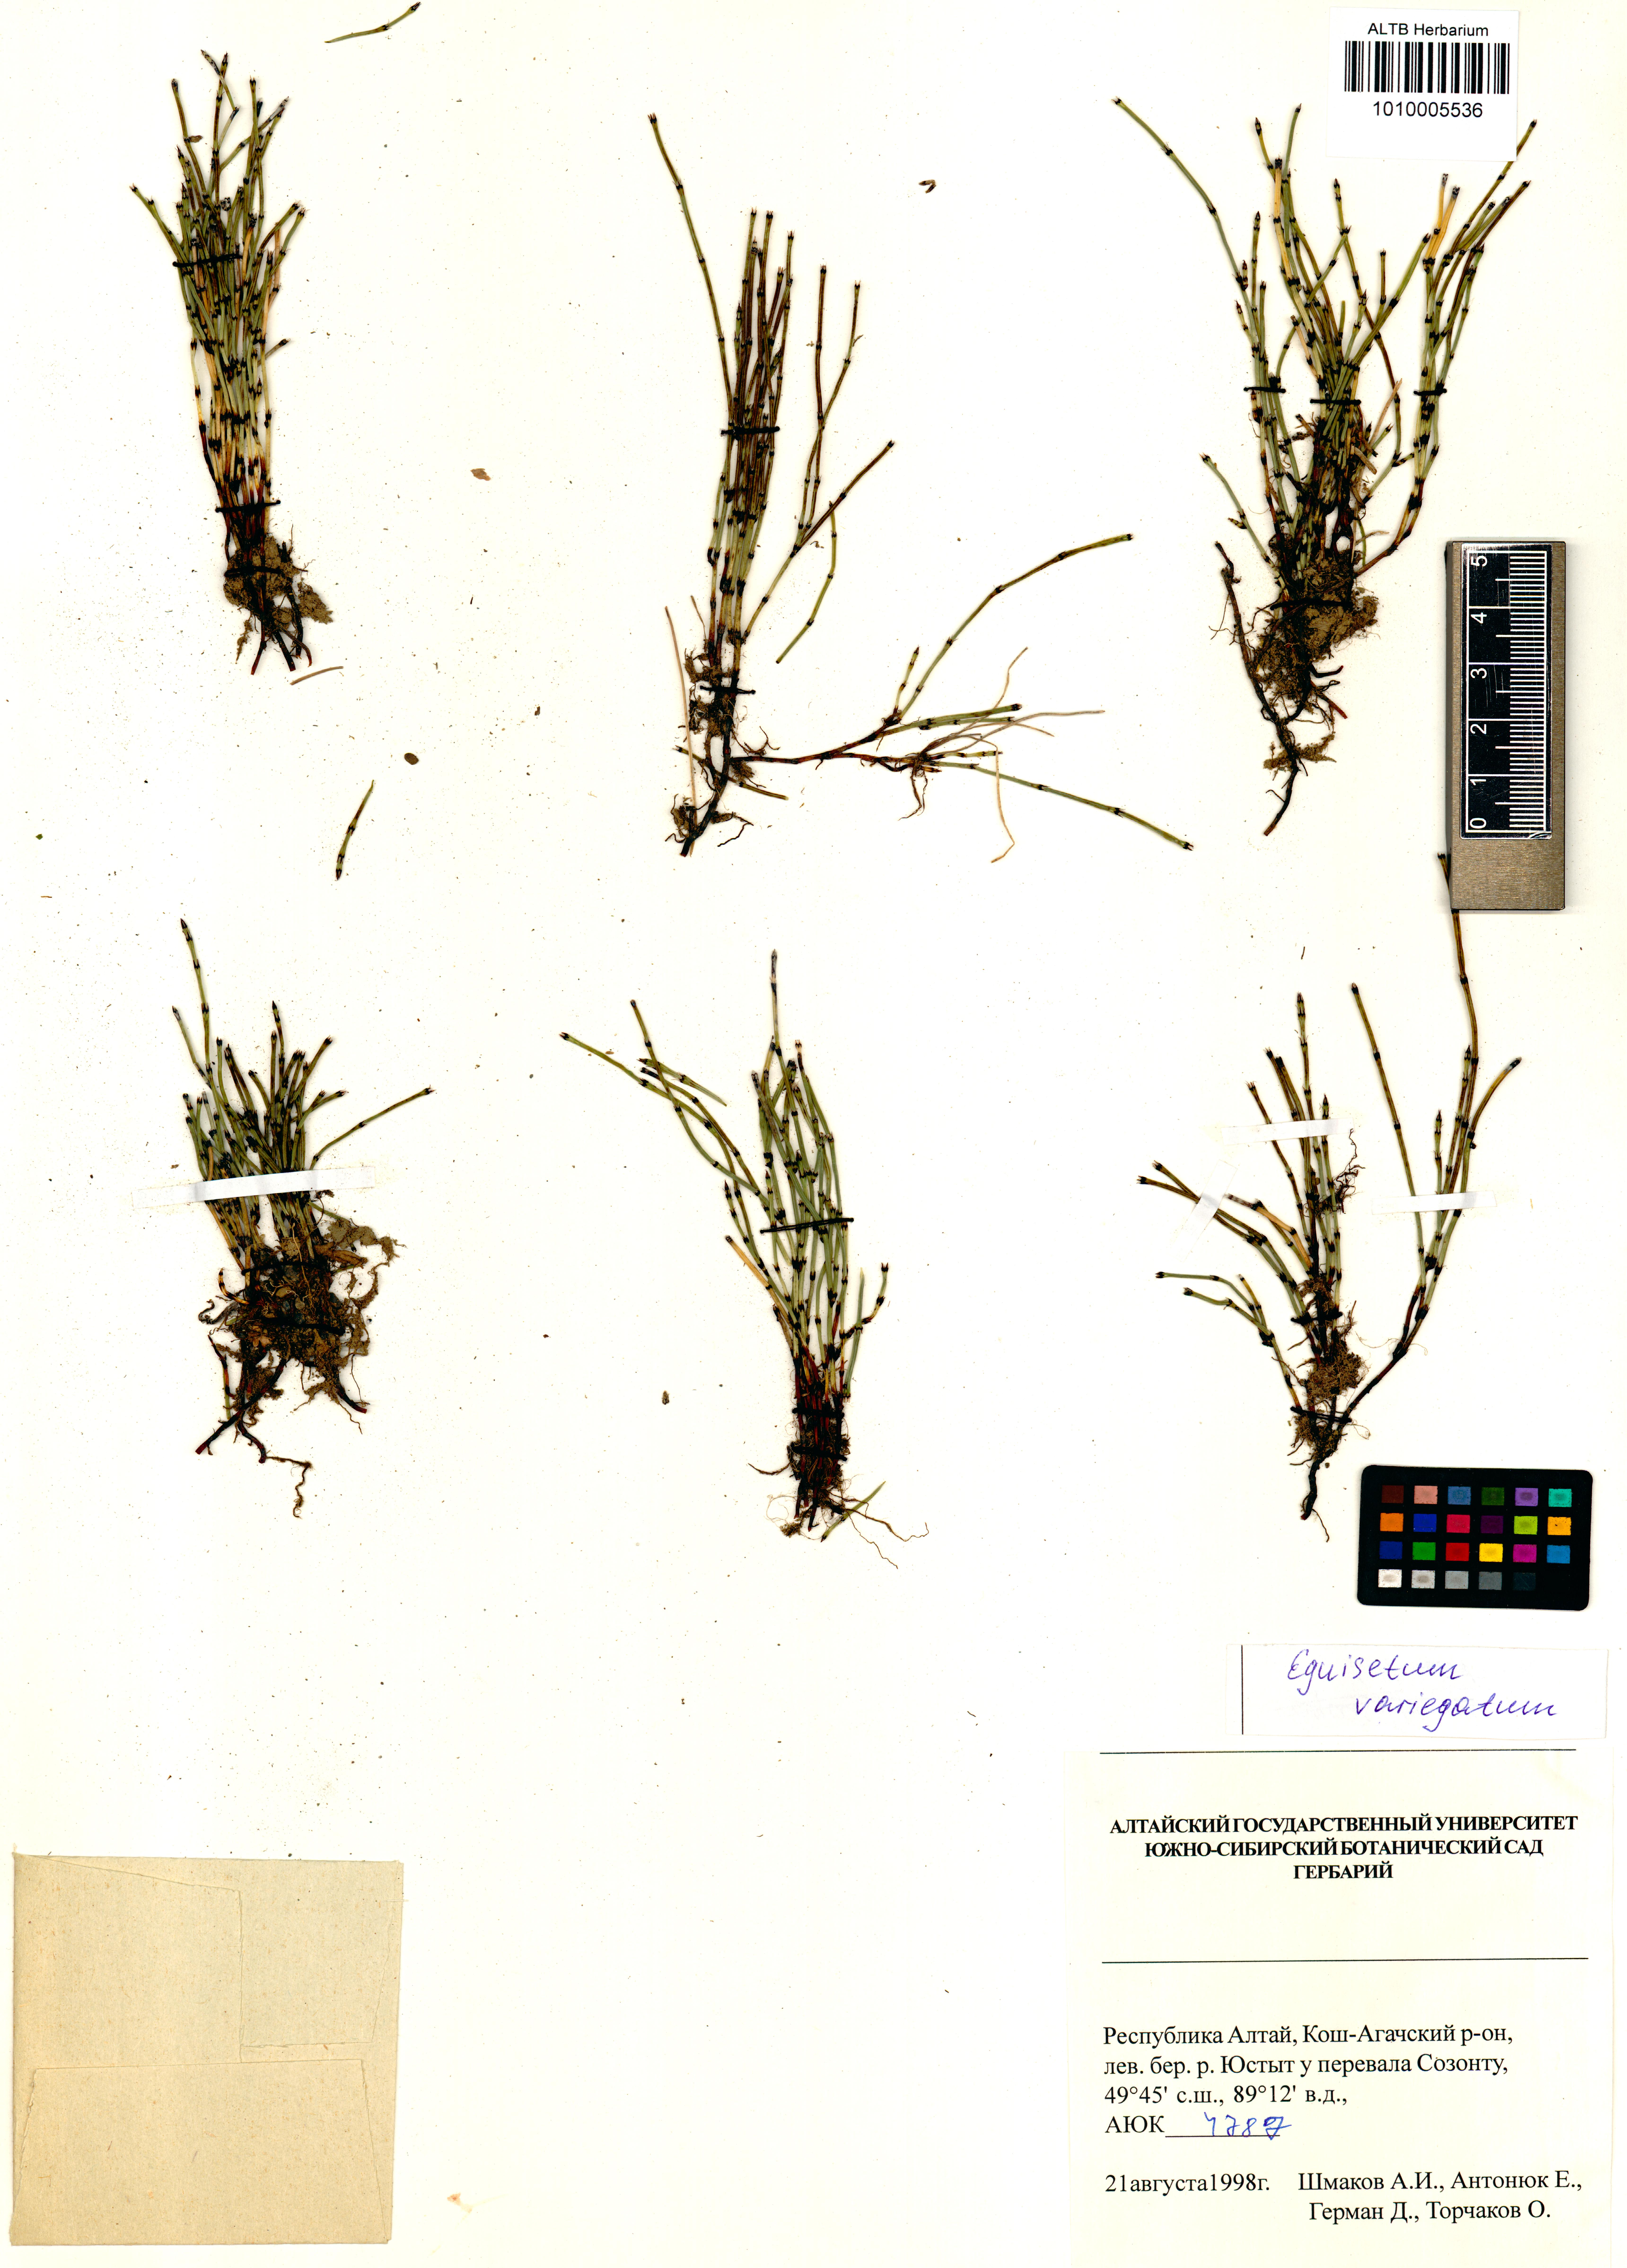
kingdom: Plantae
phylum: Tracheophyta
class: Polypodiopsida
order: Equisetales
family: Equisetaceae
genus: Equisetum
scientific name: Equisetum variegatum
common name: Variegated horsetail
